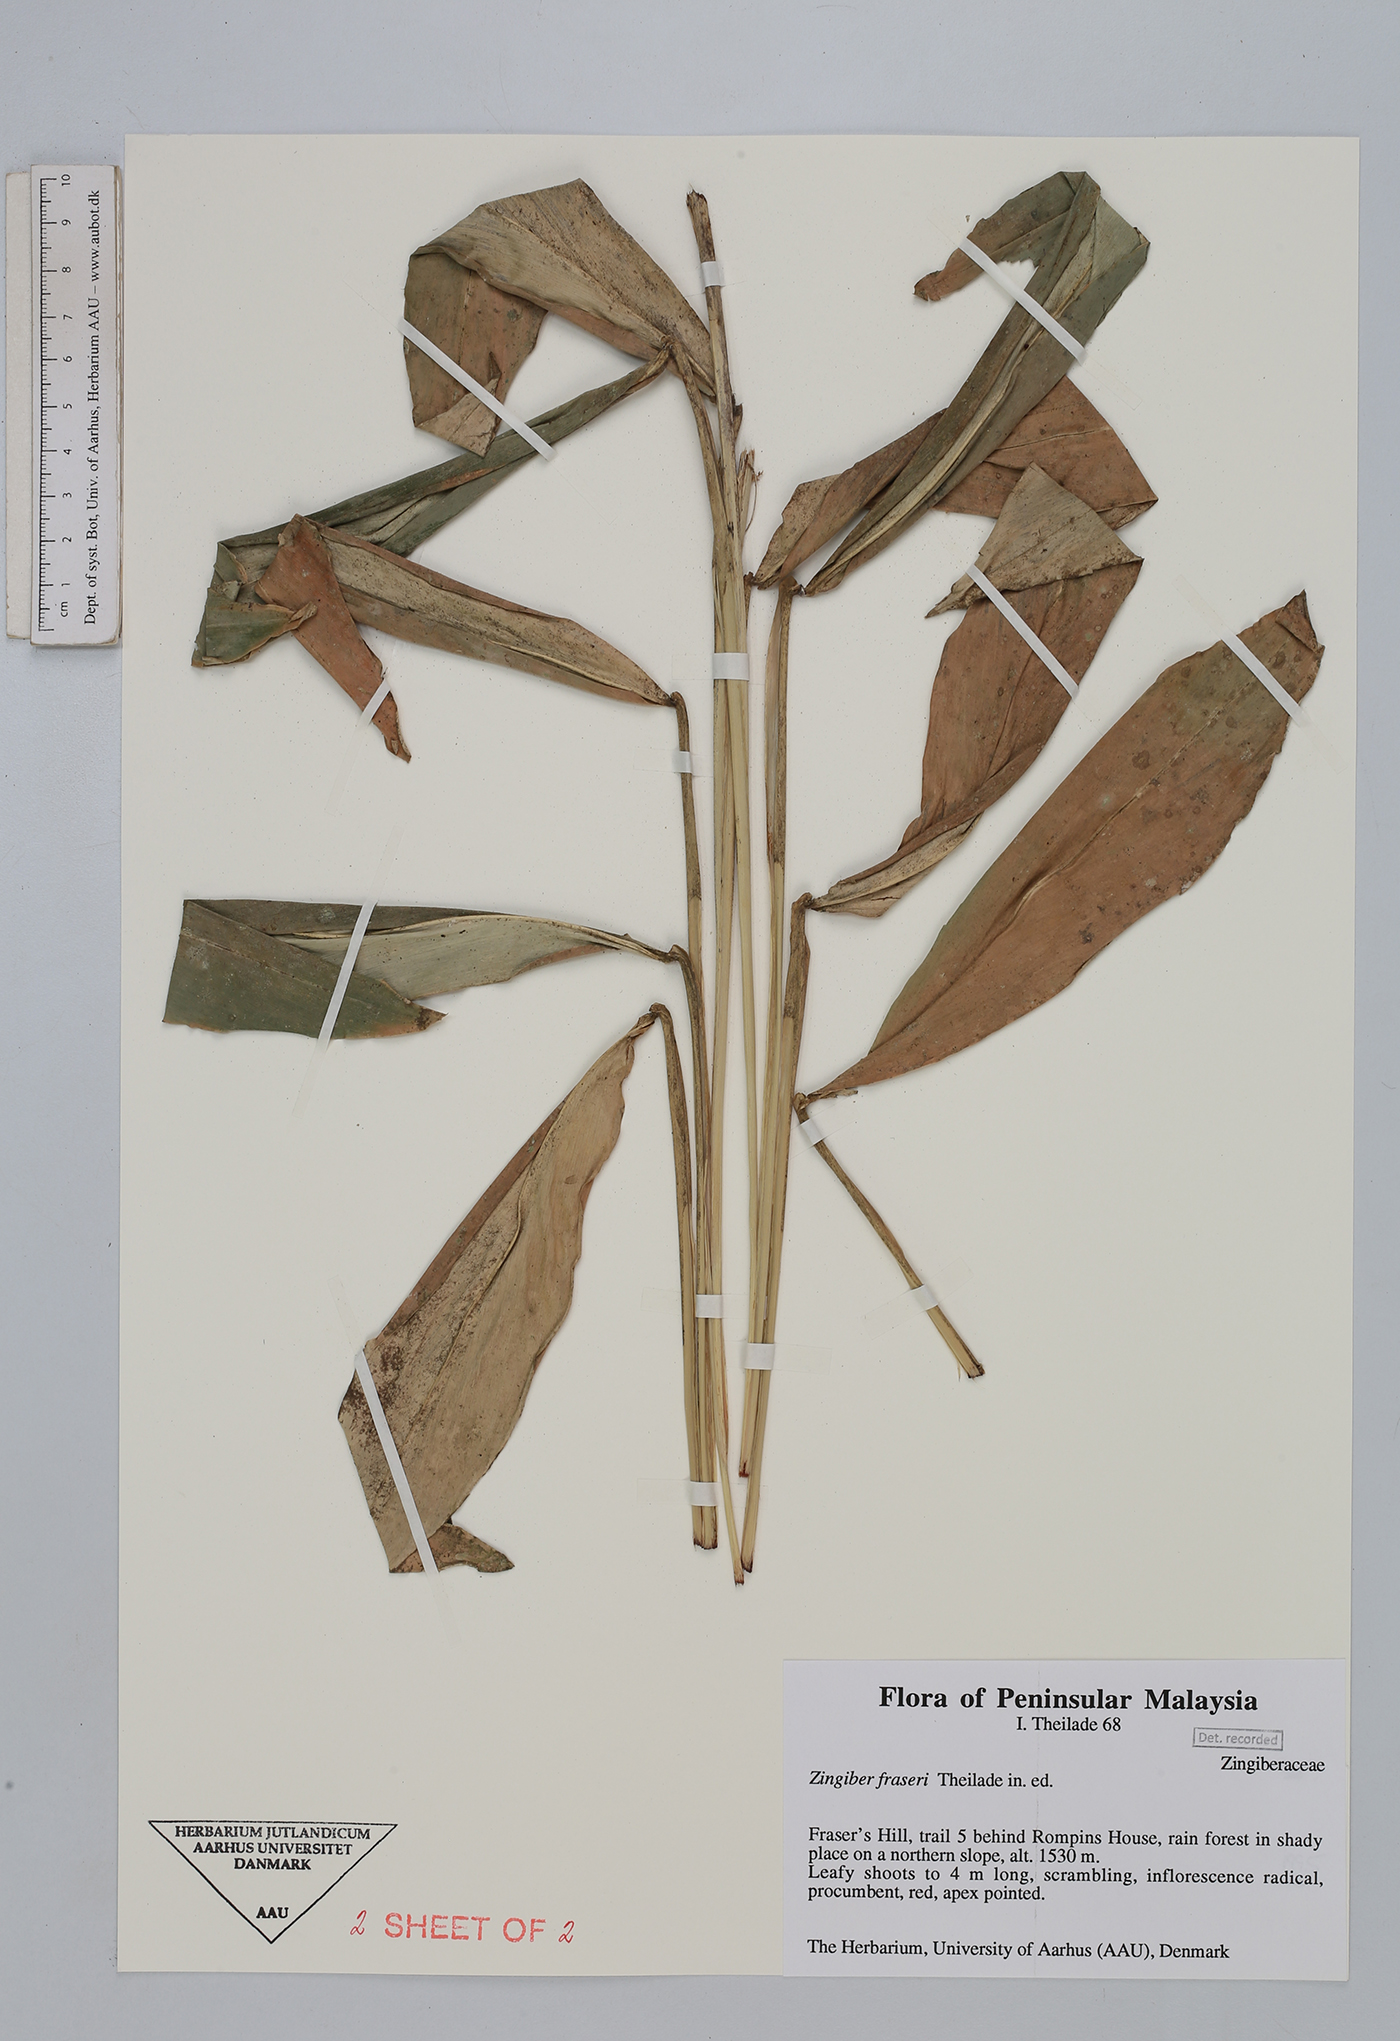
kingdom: Plantae
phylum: Tracheophyta
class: Liliopsida
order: Zingiberales
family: Zingiberaceae
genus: Zingiber
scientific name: Zingiber fraseri
